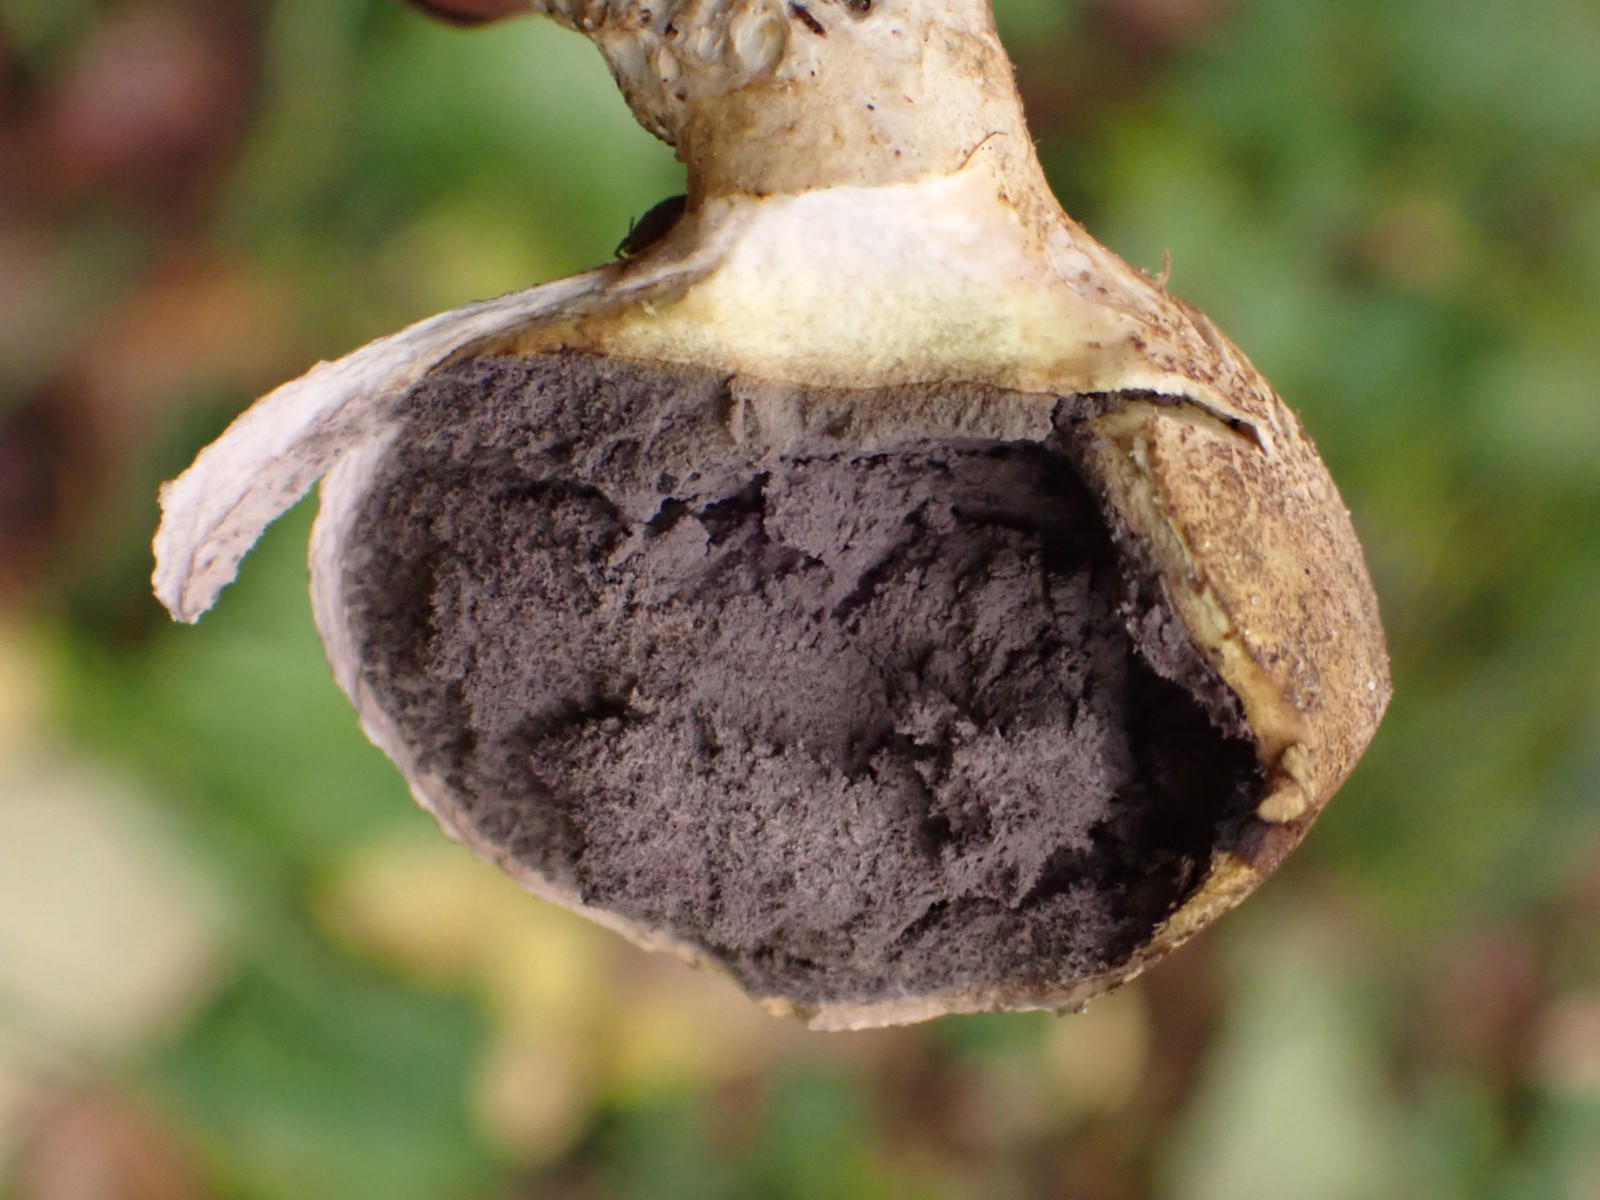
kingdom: Fungi
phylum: Basidiomycota
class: Agaricomycetes
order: Boletales
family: Sclerodermataceae
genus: Scleroderma
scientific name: Scleroderma verrucosum
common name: stilket bruskbold
